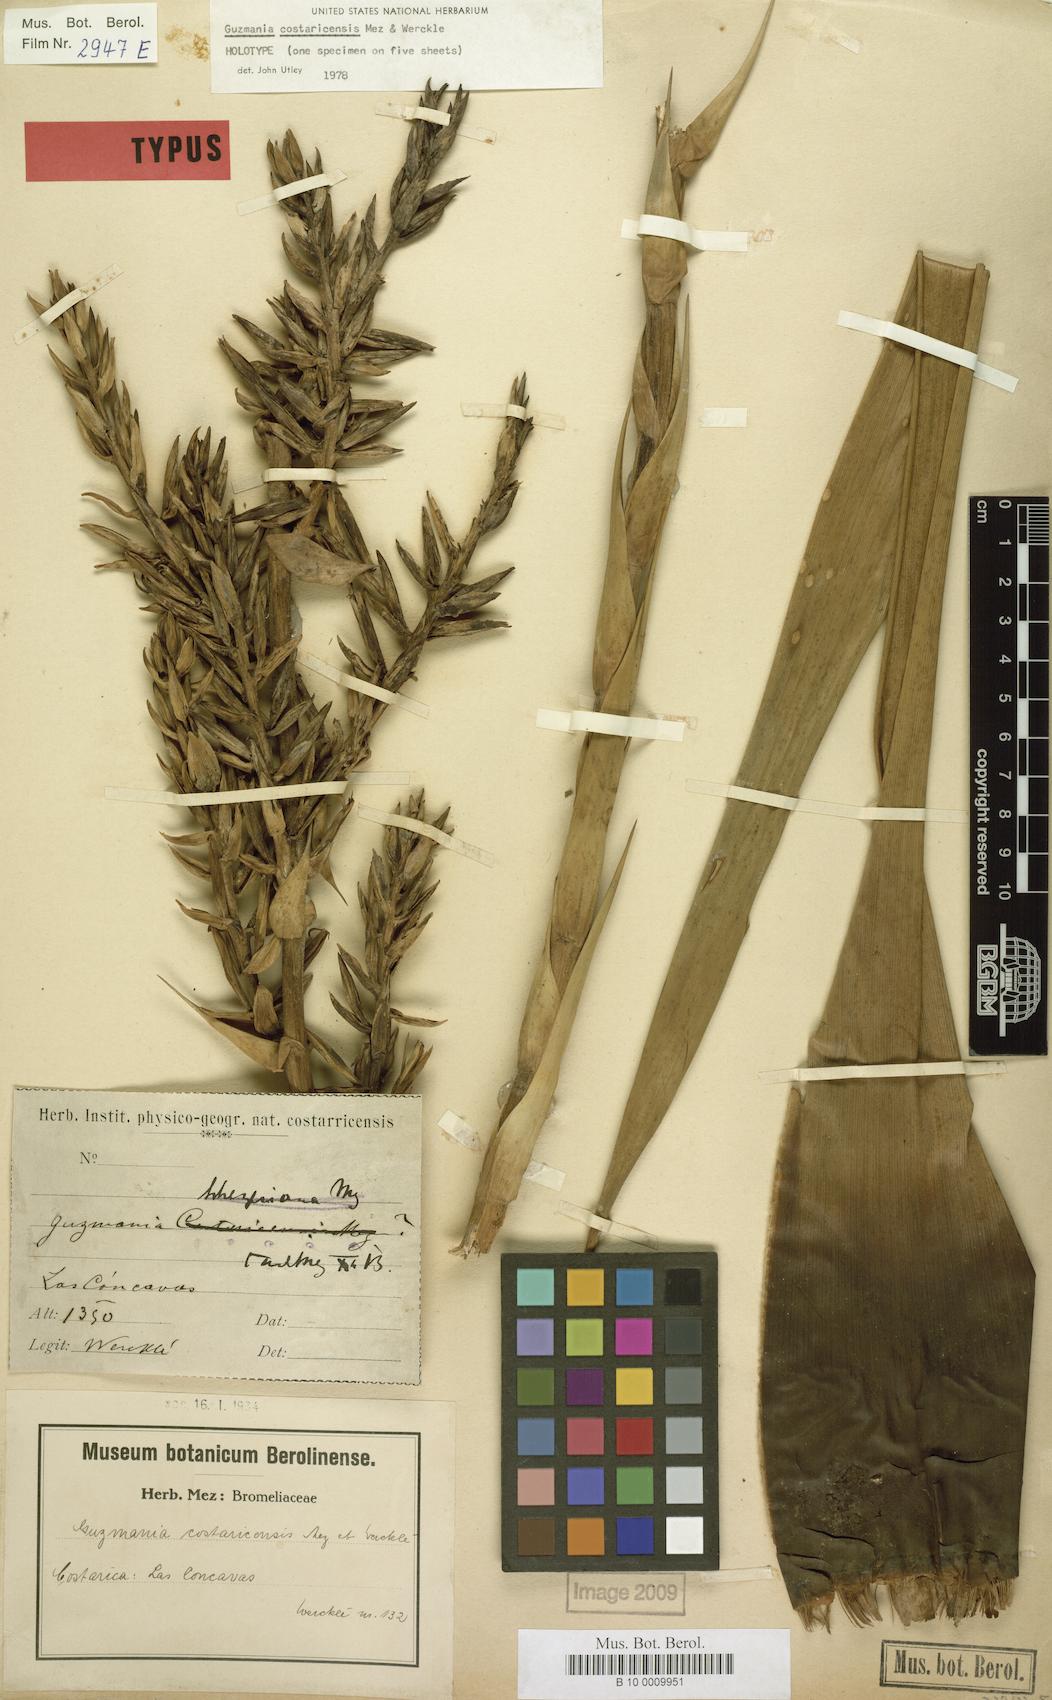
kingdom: Plantae
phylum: Tracheophyta
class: Liliopsida
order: Poales
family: Bromeliaceae
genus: Guzmania
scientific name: Guzmania condensata
